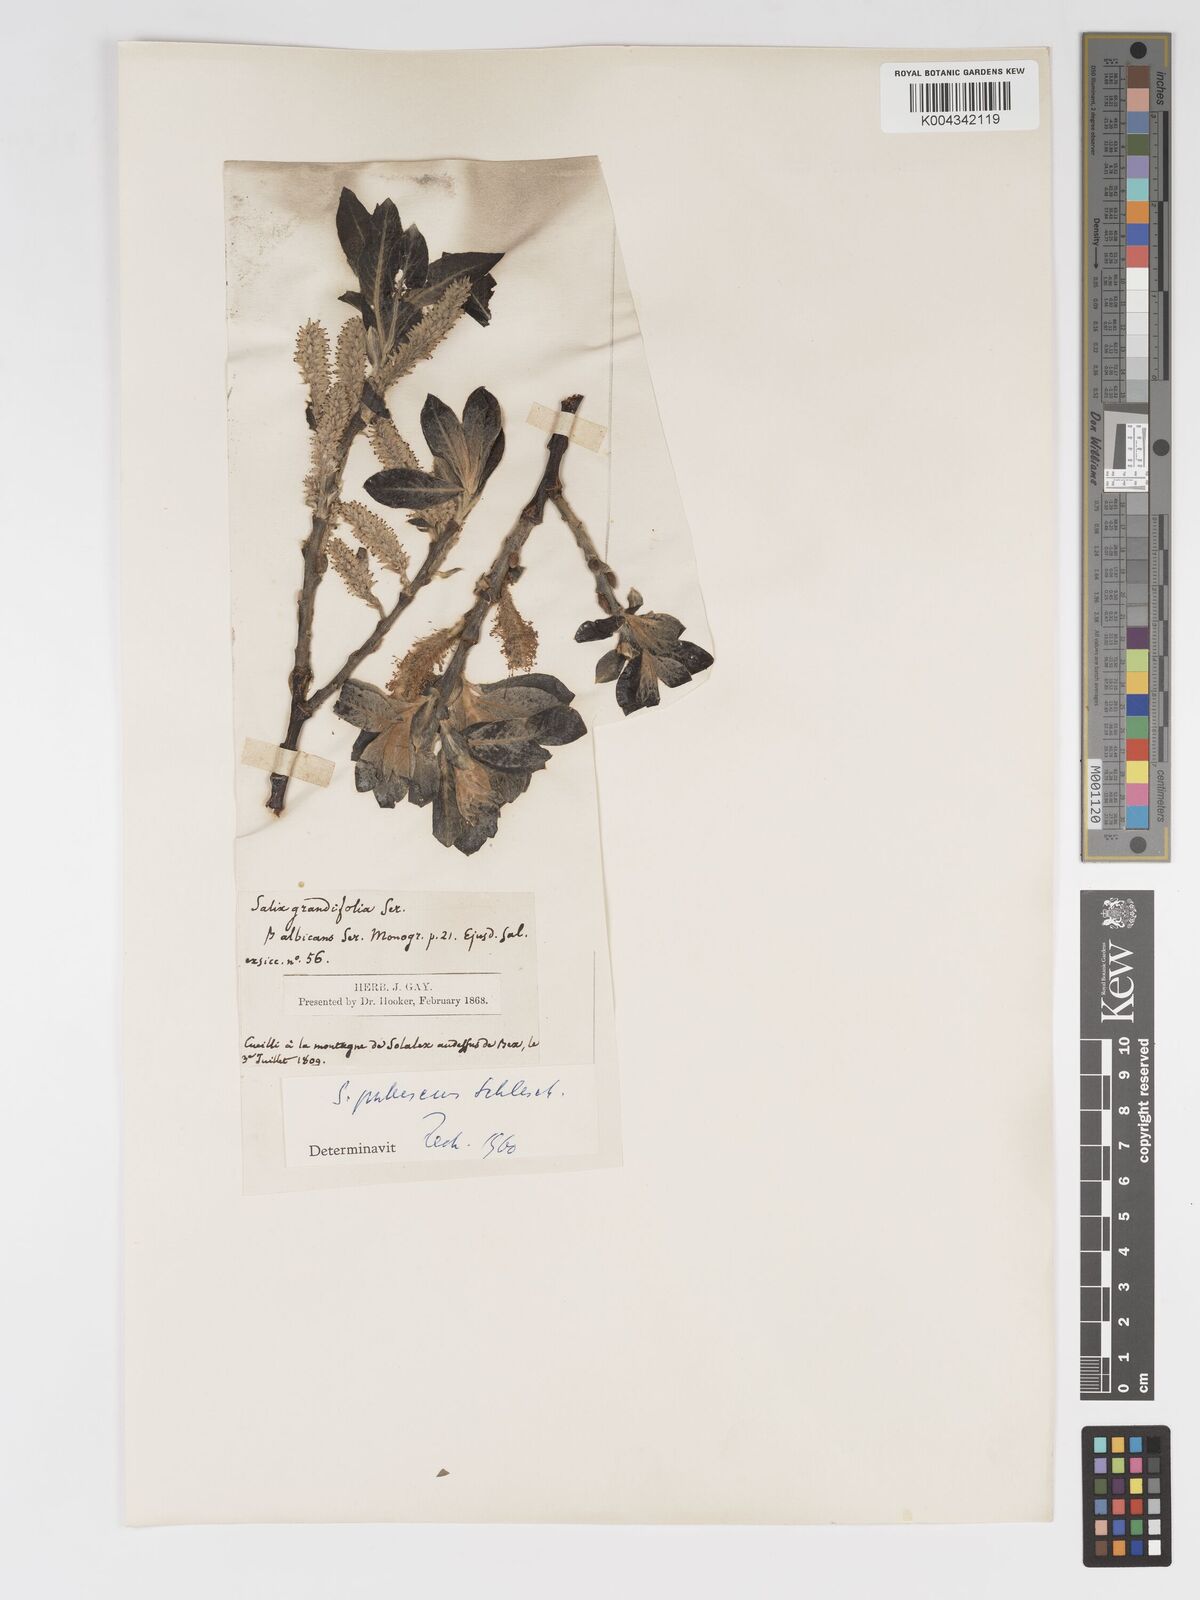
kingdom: Plantae
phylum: Tracheophyta
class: Magnoliopsida
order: Malpighiales
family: Salicaceae
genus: Salix
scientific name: Salix laggeri
